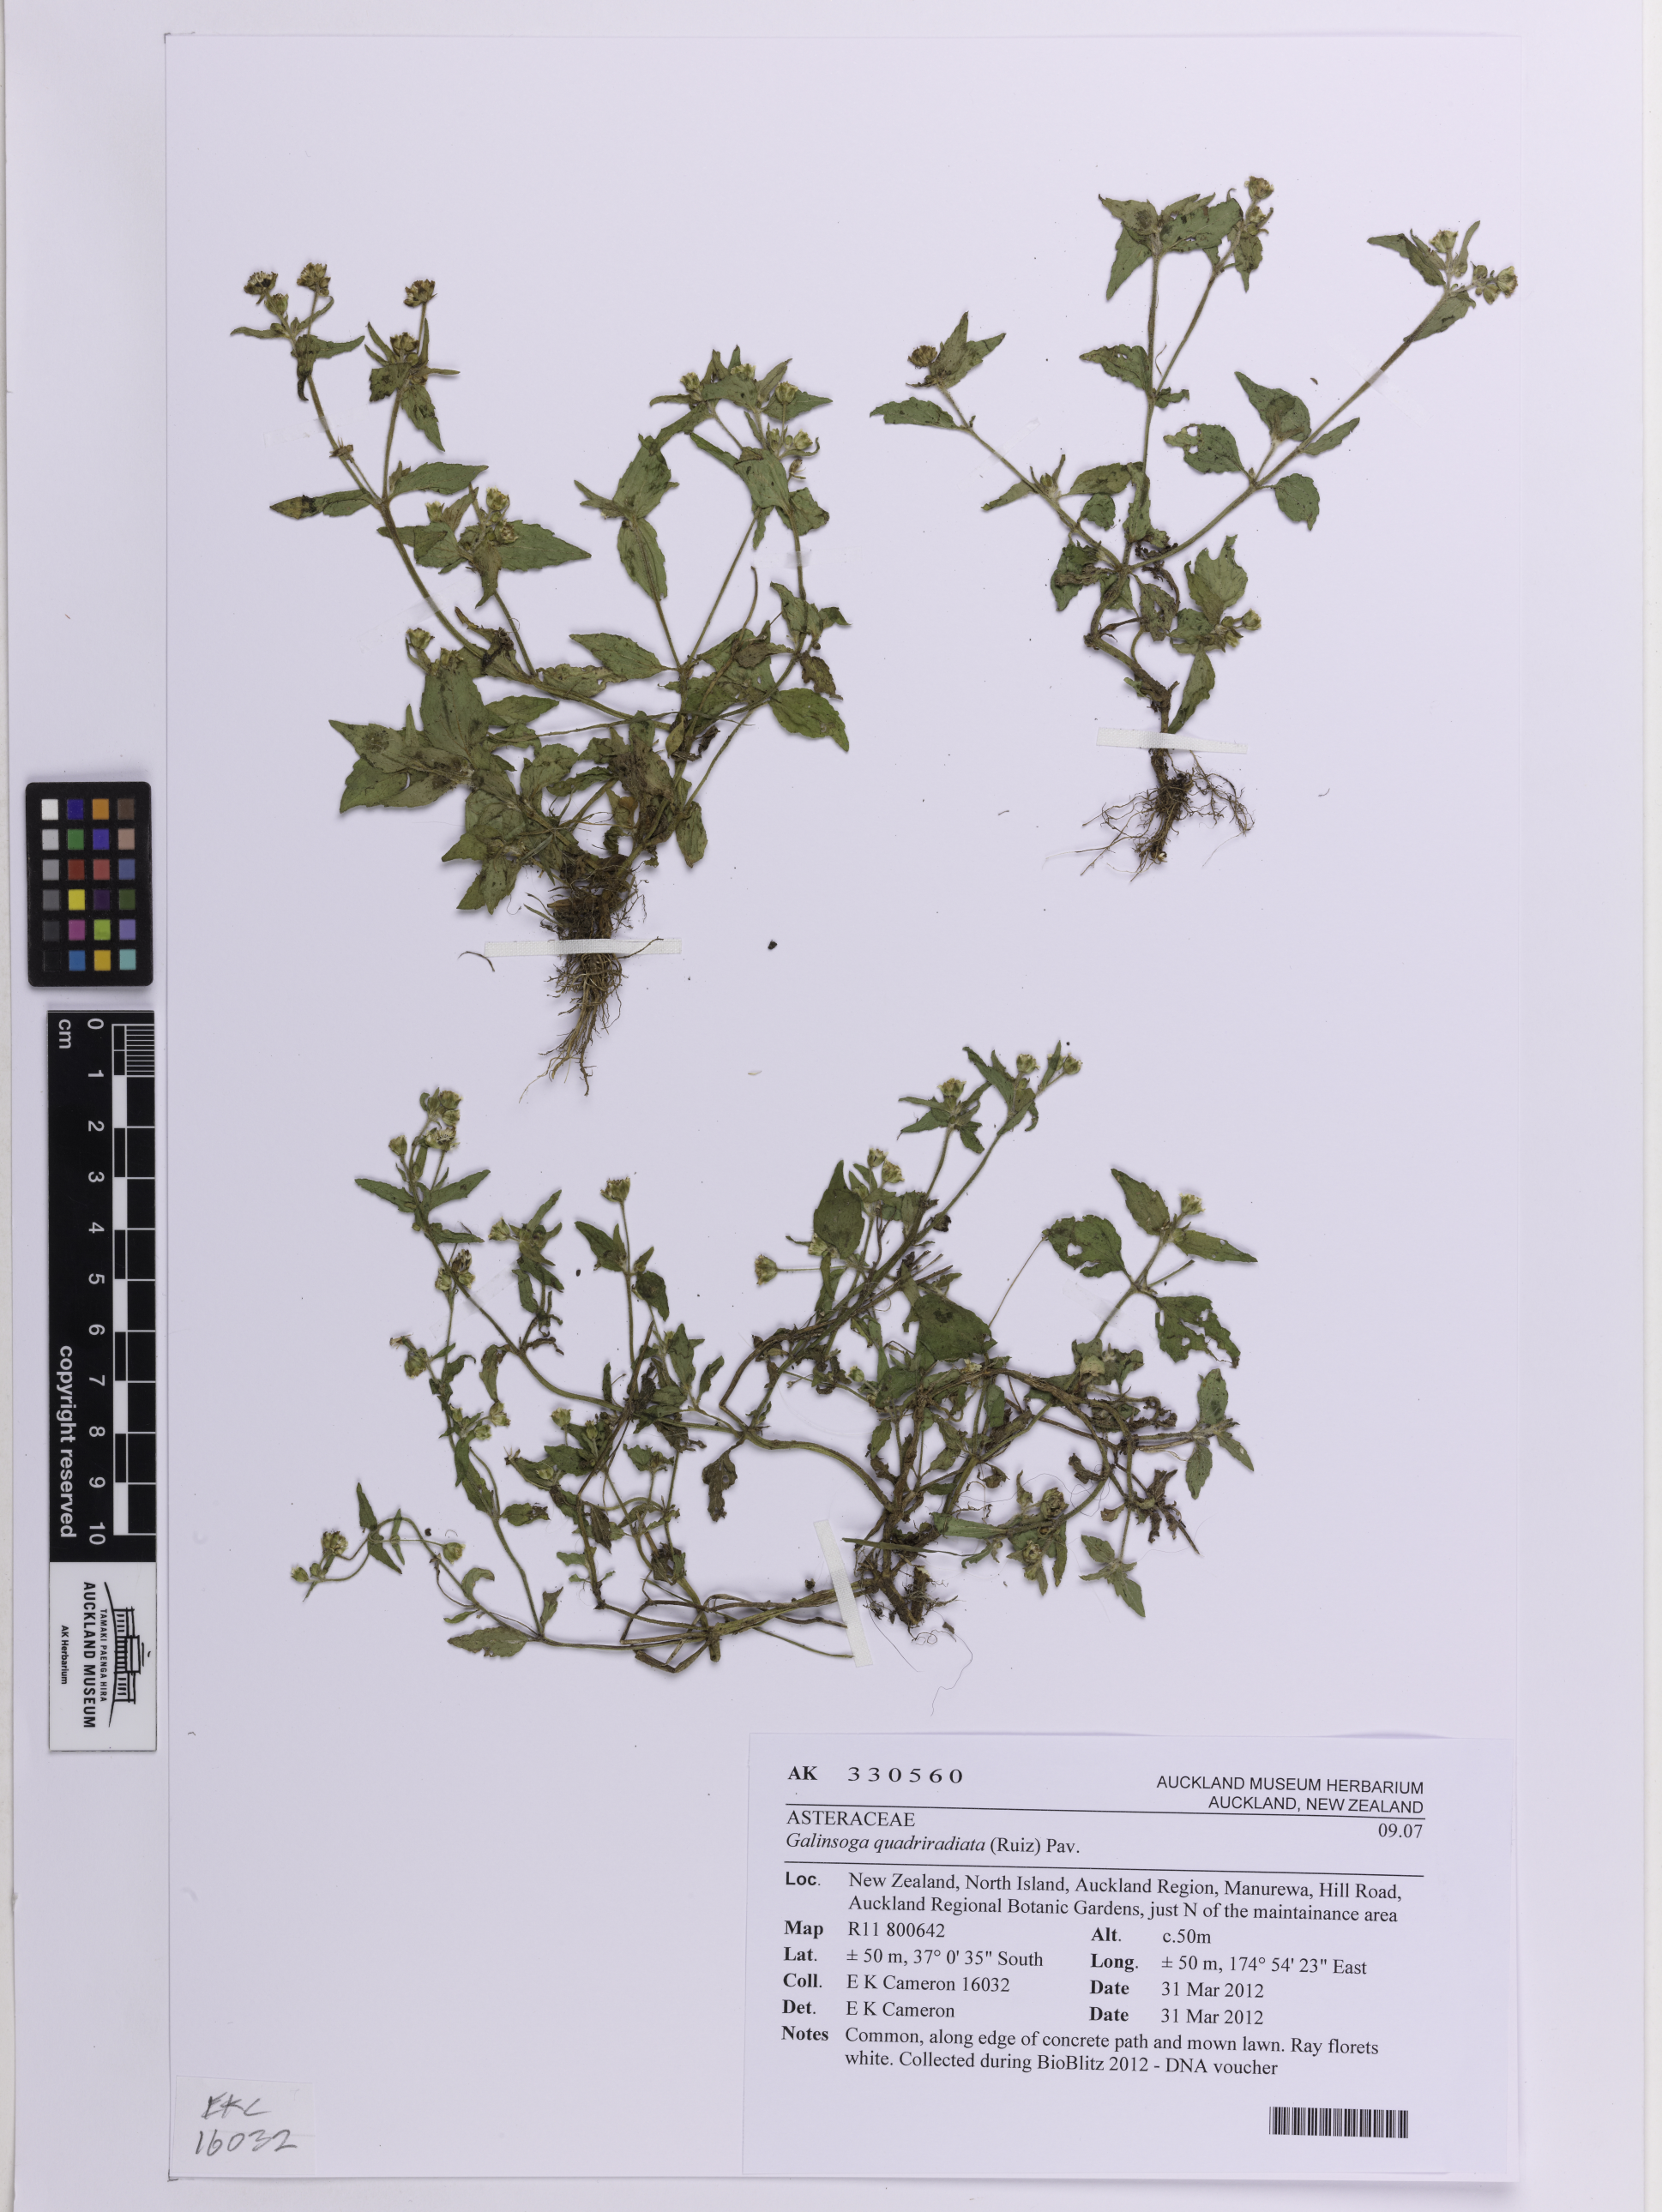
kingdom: Plantae
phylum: Tracheophyta
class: Magnoliopsida
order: Asterales
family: Asteraceae
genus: Galinsoga
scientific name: Galinsoga quadriradiata
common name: Shaggy soldier
